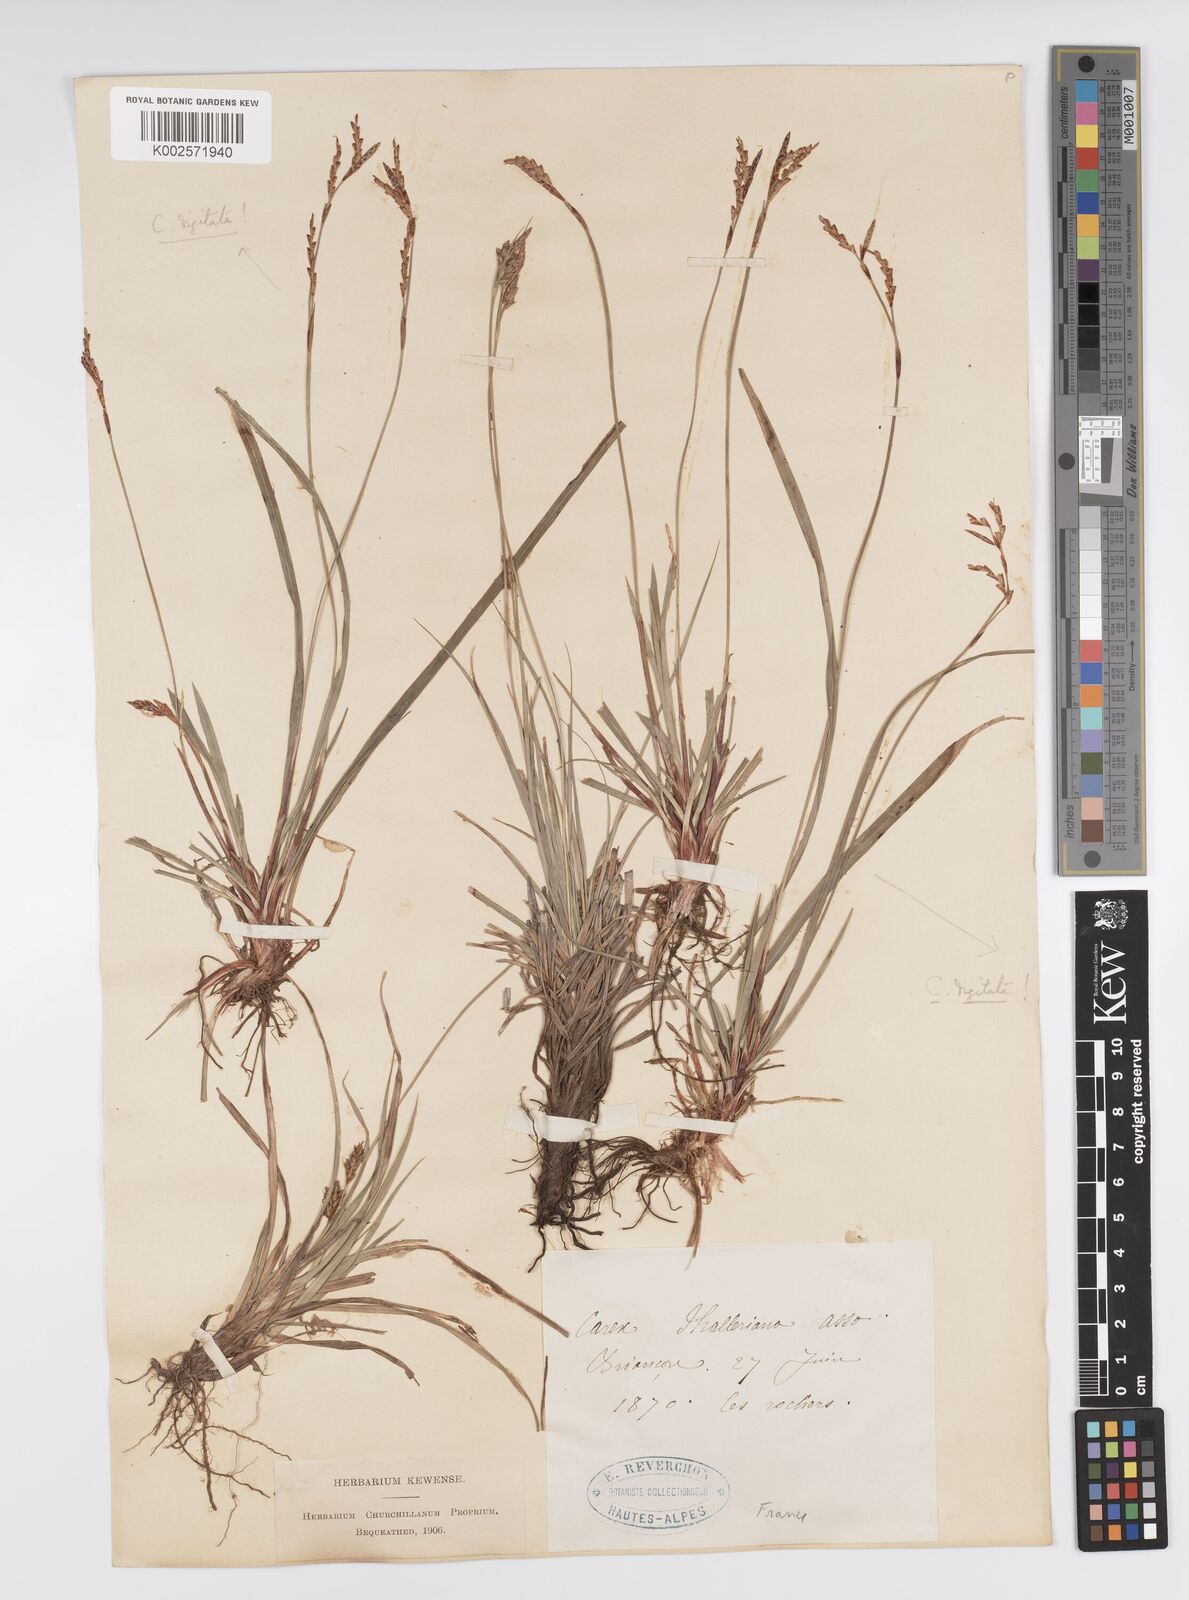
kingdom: Plantae
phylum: Tracheophyta
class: Liliopsida
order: Poales
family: Cyperaceae
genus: Carex
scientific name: Carex halleriana
